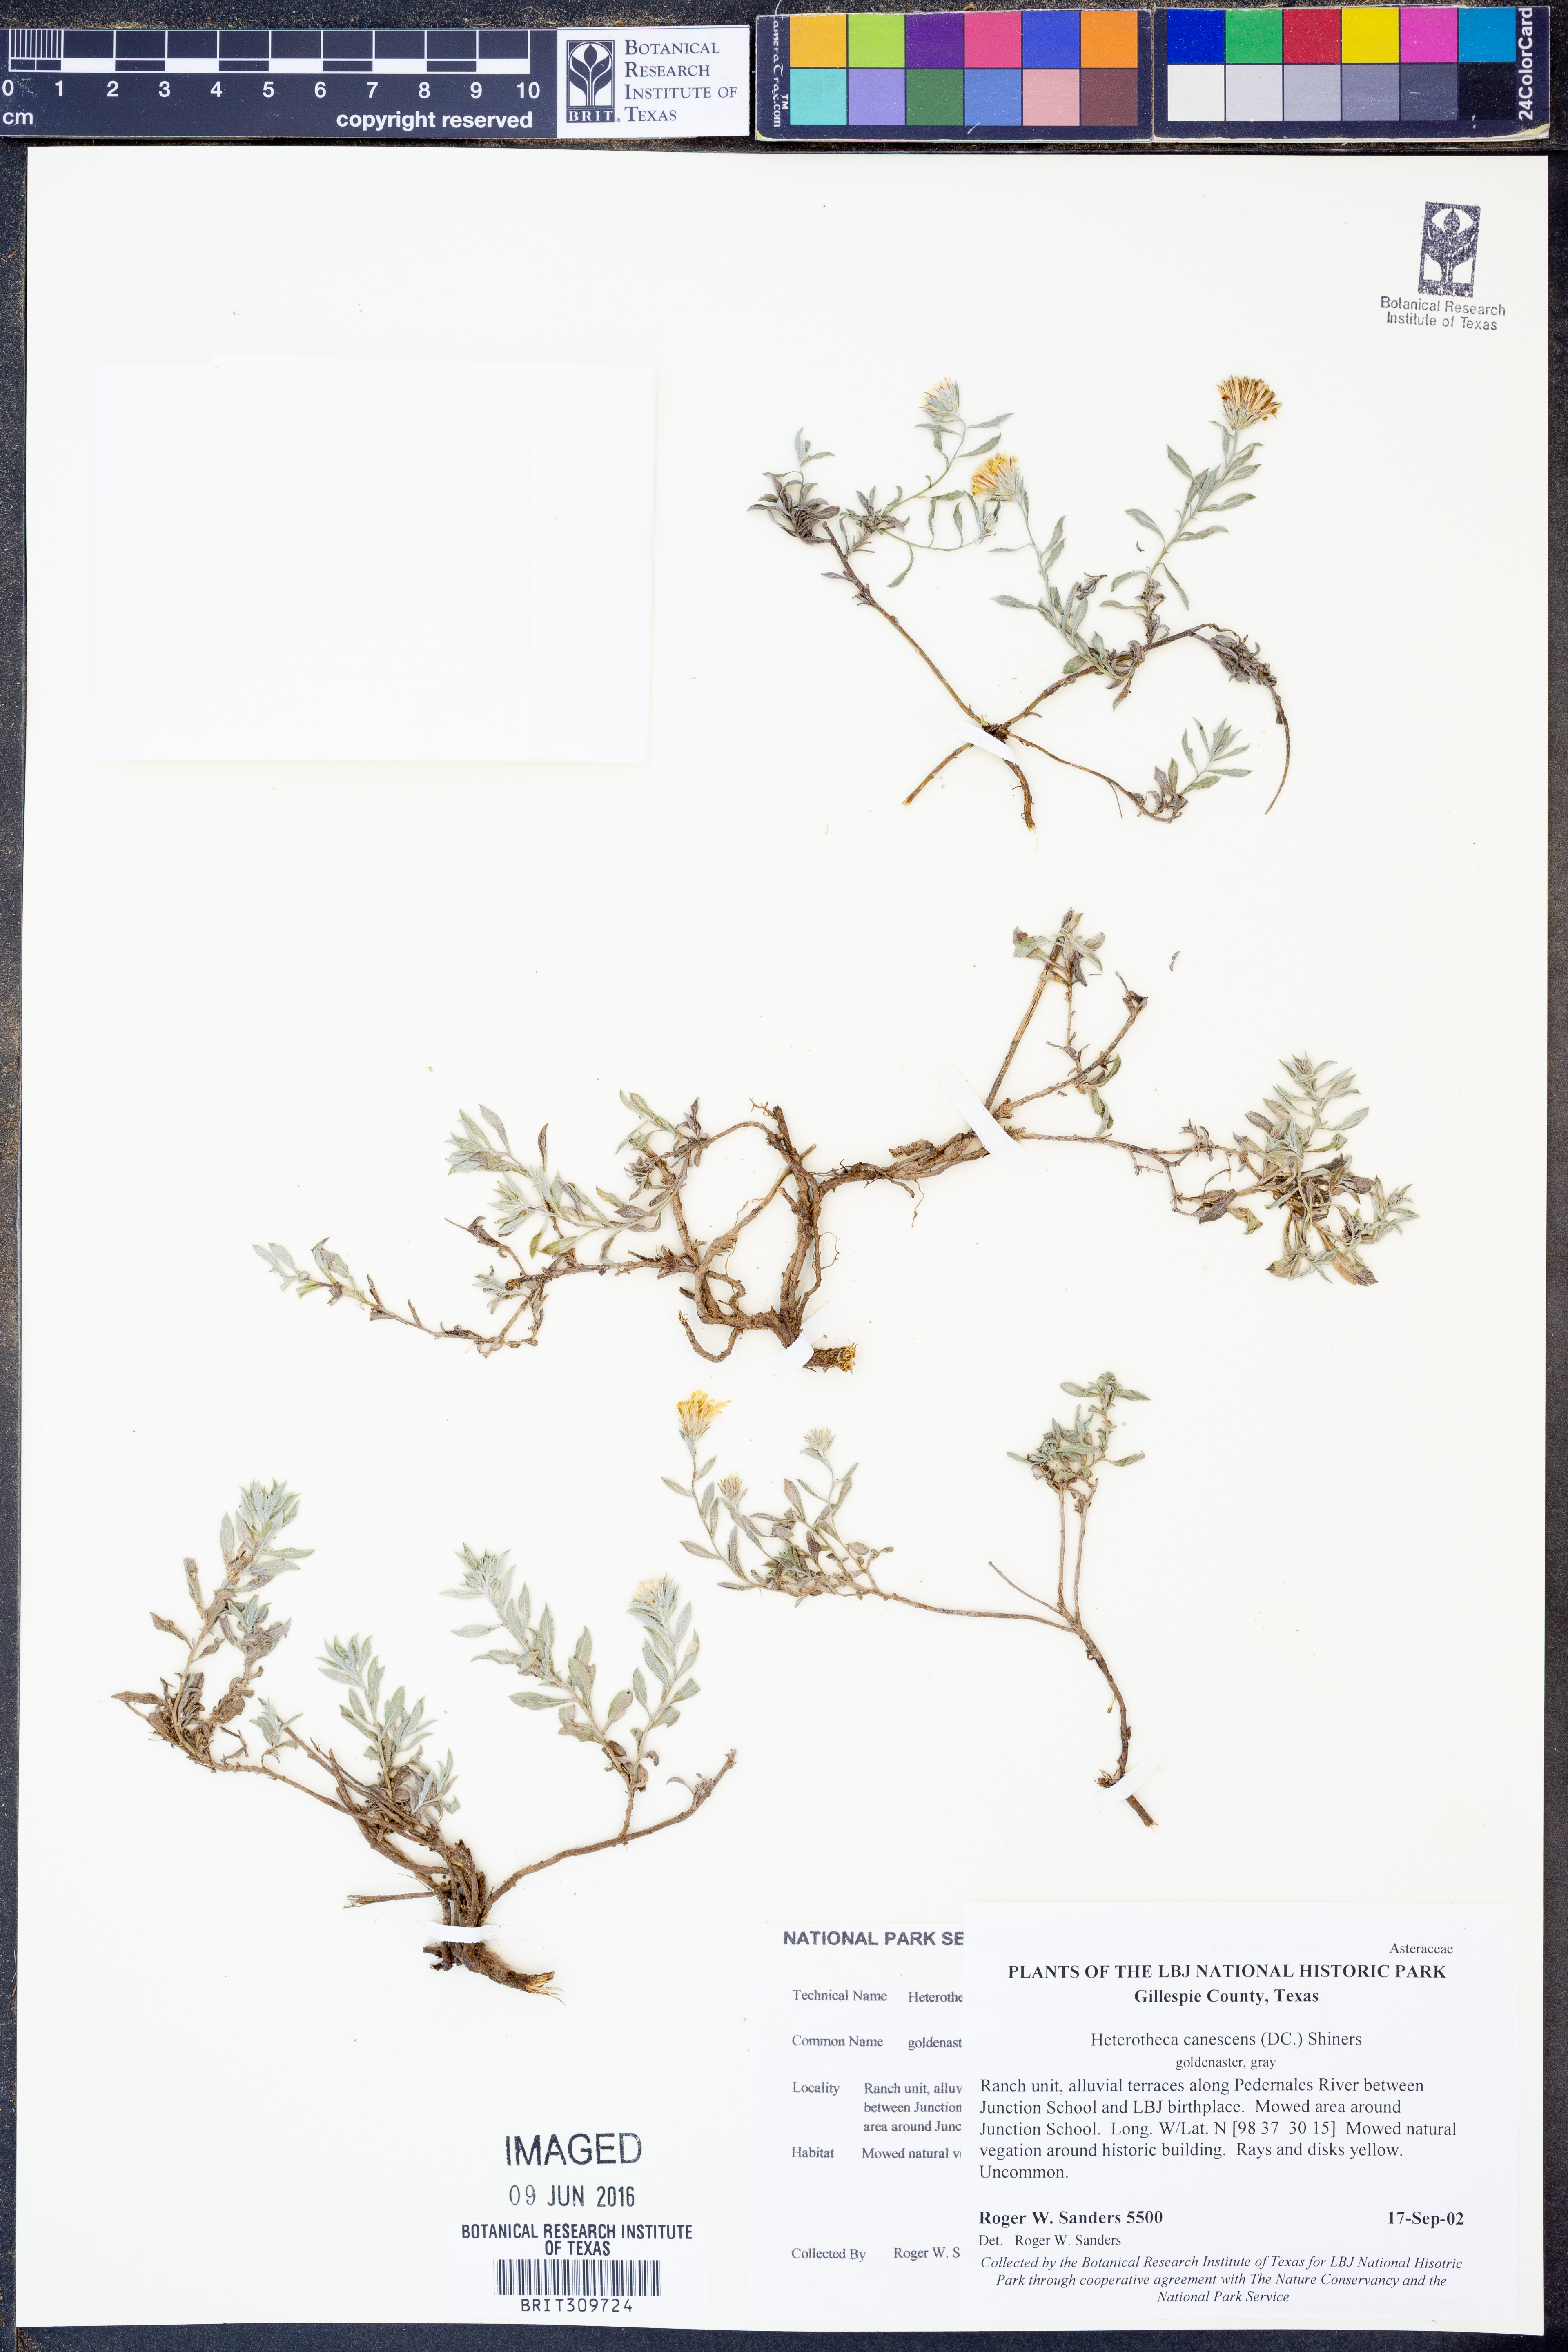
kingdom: Plantae
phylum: Tracheophyta
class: Magnoliopsida
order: Asterales
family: Asteraceae
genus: Heterotheca
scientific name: Heterotheca canescens
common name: Hoary golden-aster
